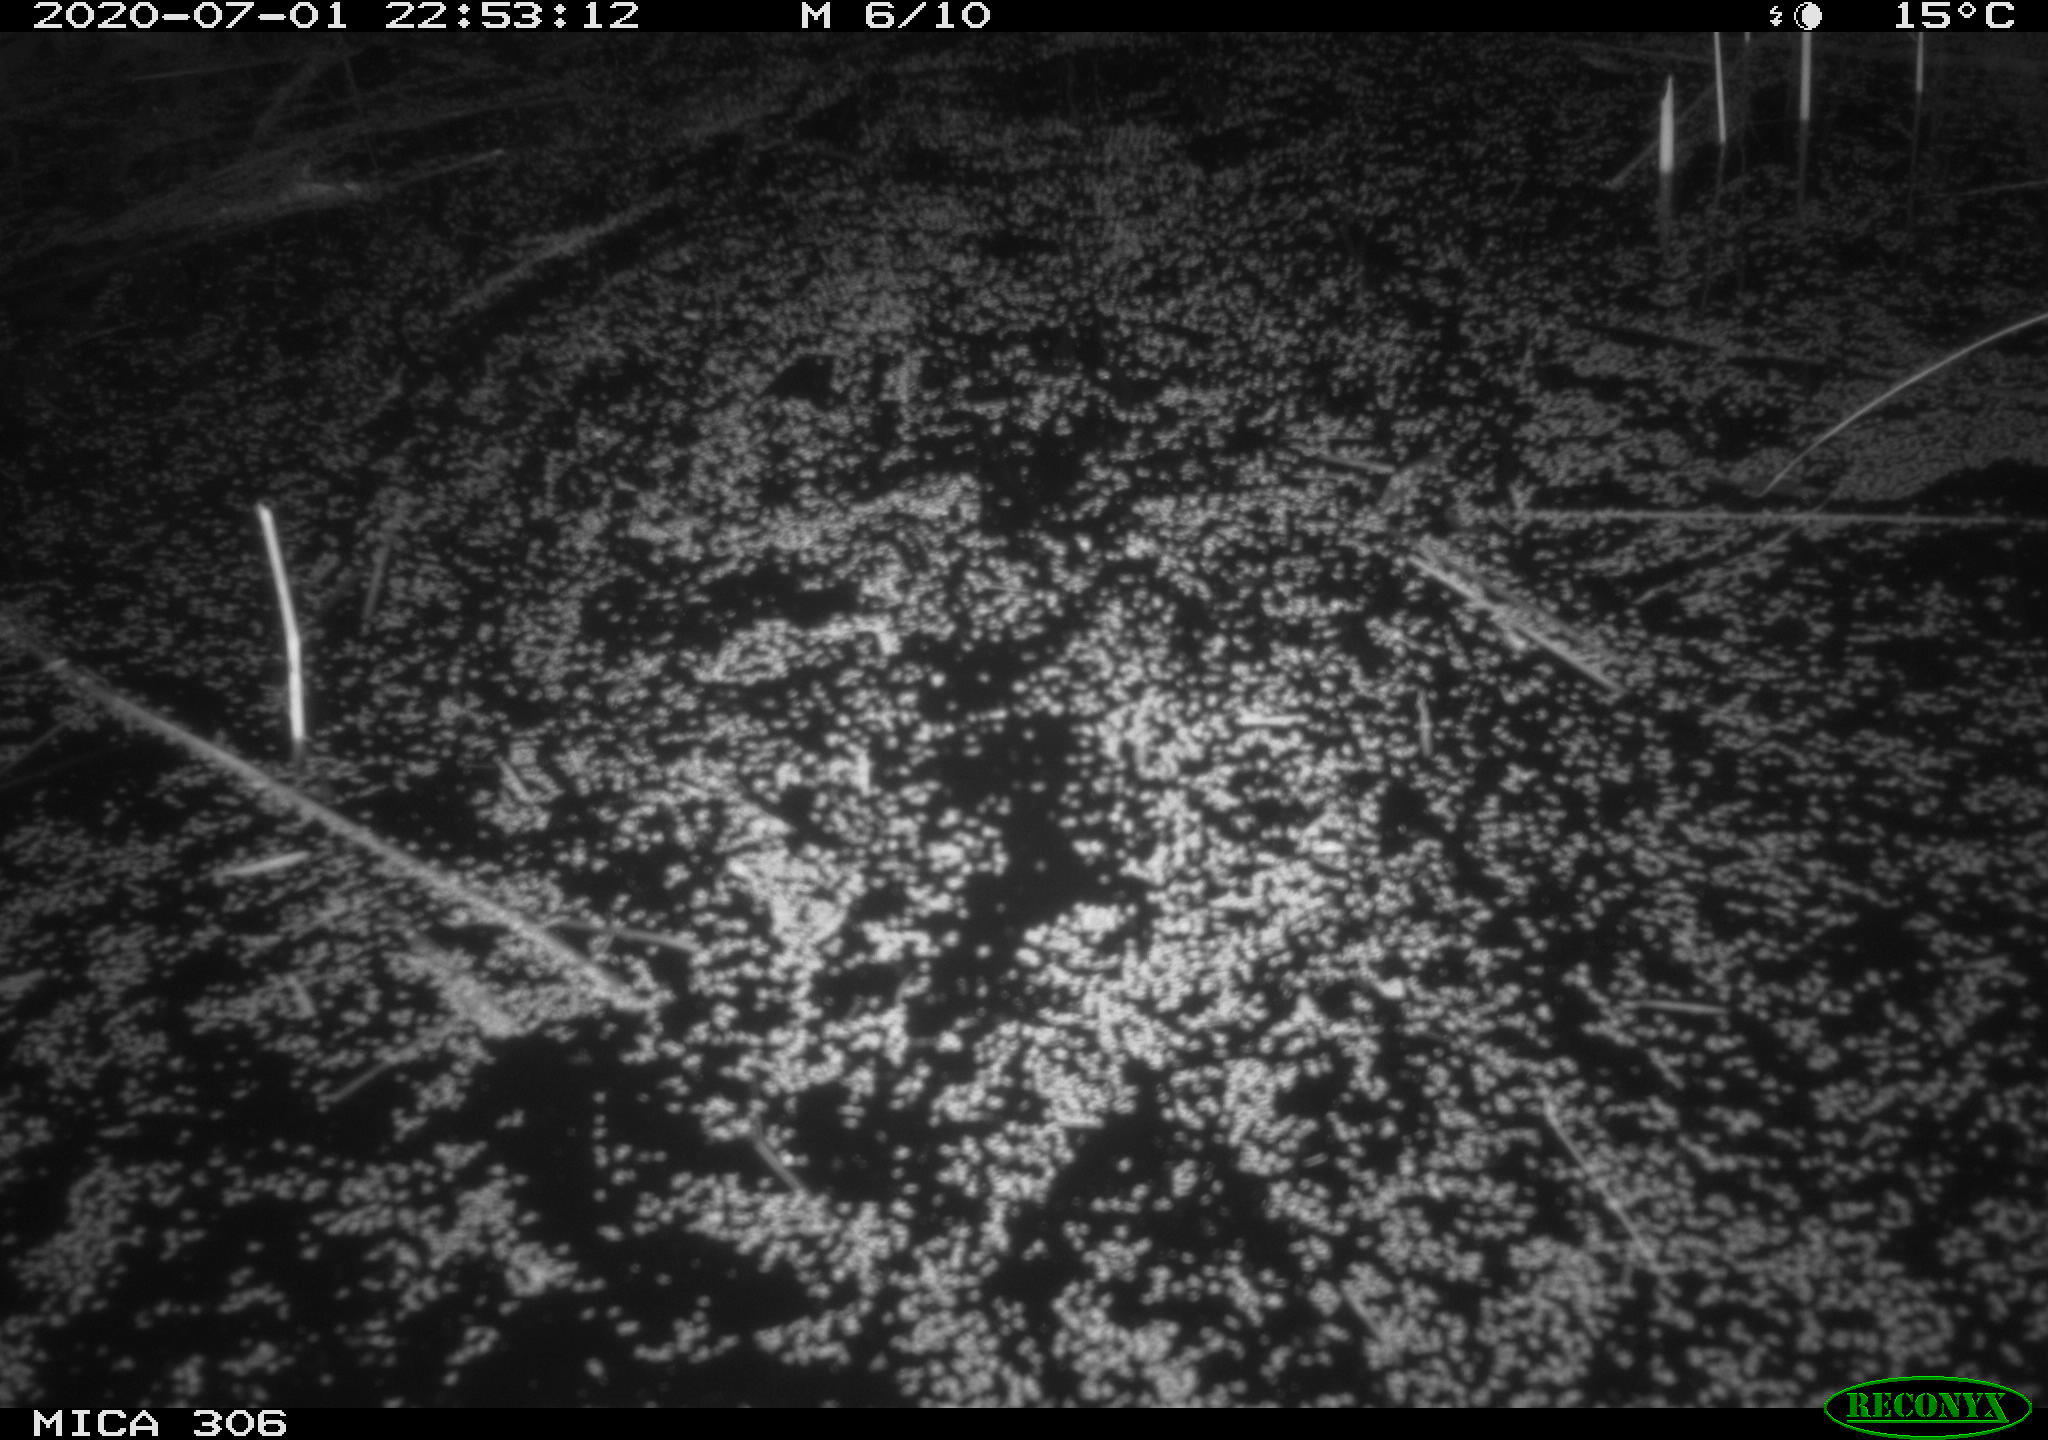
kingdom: Animalia
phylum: Chordata
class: Mammalia
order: Rodentia
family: Muridae
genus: Rattus
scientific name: Rattus norvegicus
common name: Brown rat
